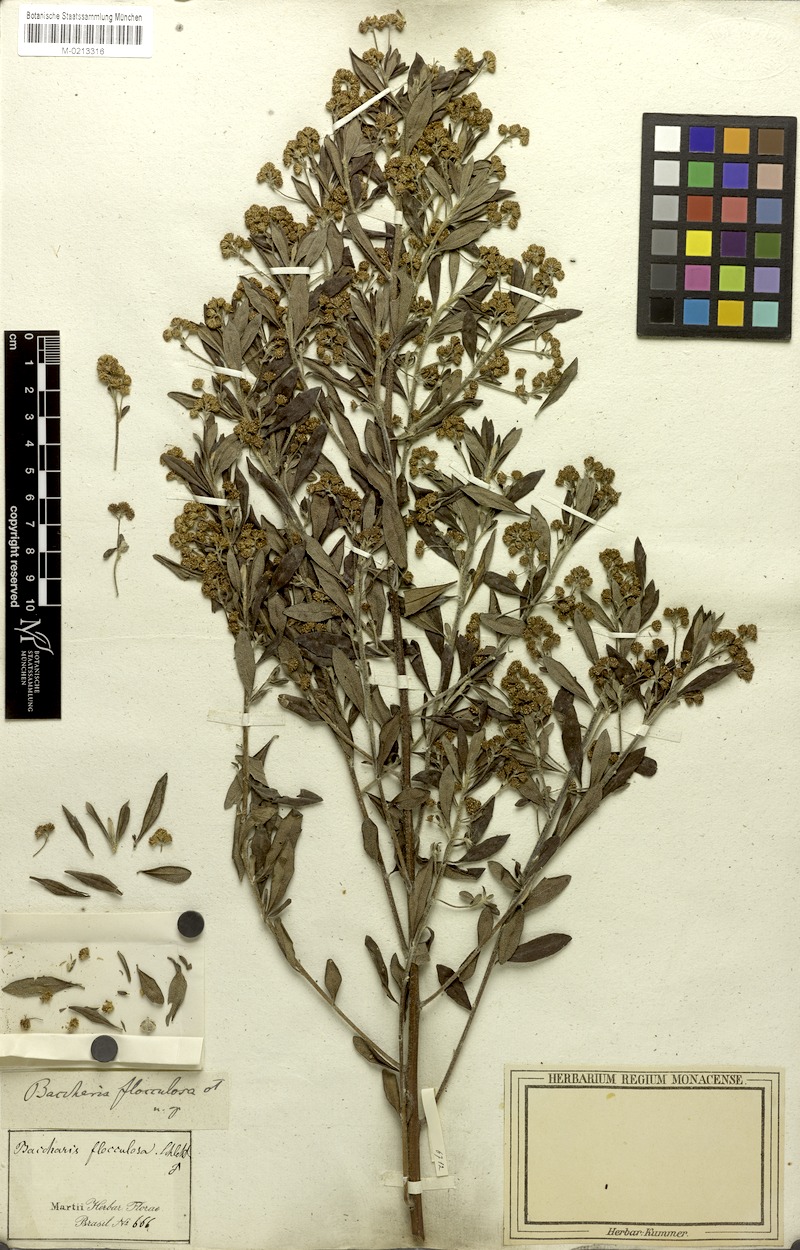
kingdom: Plantae
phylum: Tracheophyta
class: Magnoliopsida
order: Asterales
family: Asteraceae
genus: Baccharis
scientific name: Baccharis calvescens
